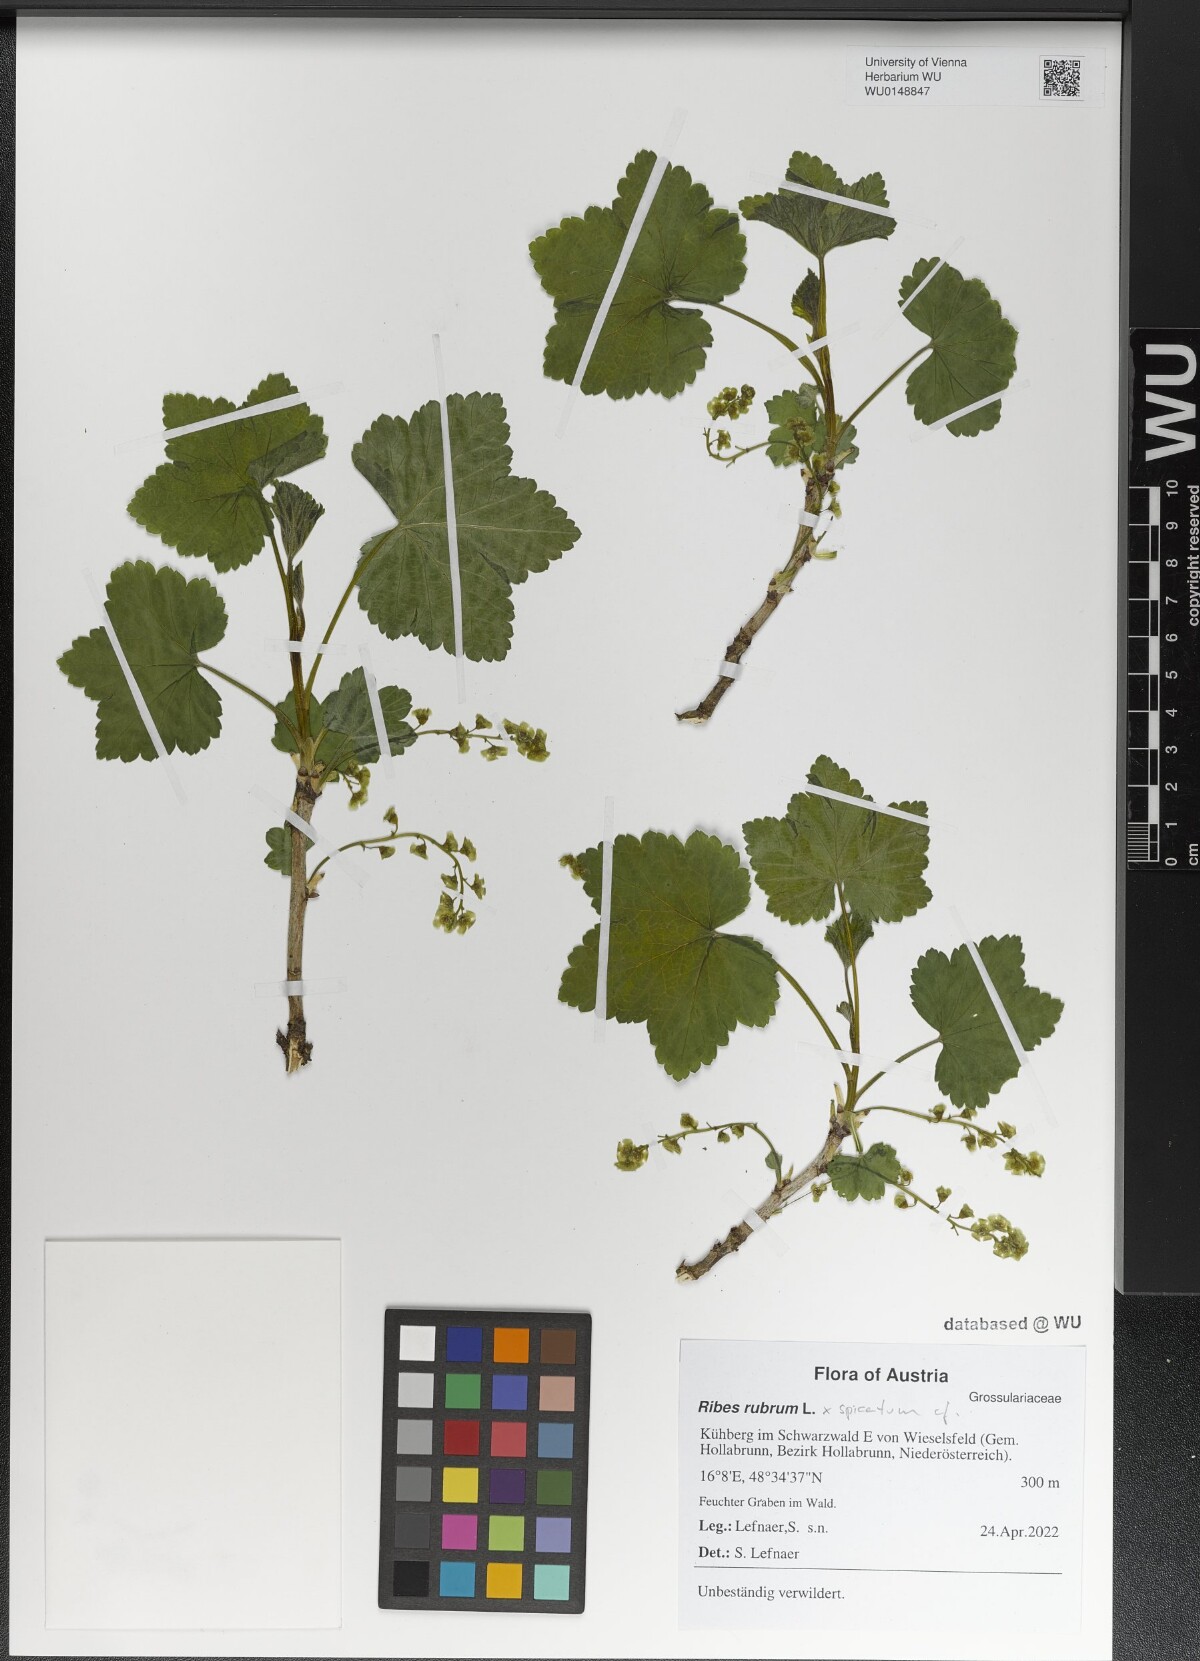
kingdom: Plantae
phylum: Tracheophyta
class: Magnoliopsida
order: Saxifragales
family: Grossulariaceae
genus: Ribes
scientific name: Ribes rubrum
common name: Red currant
